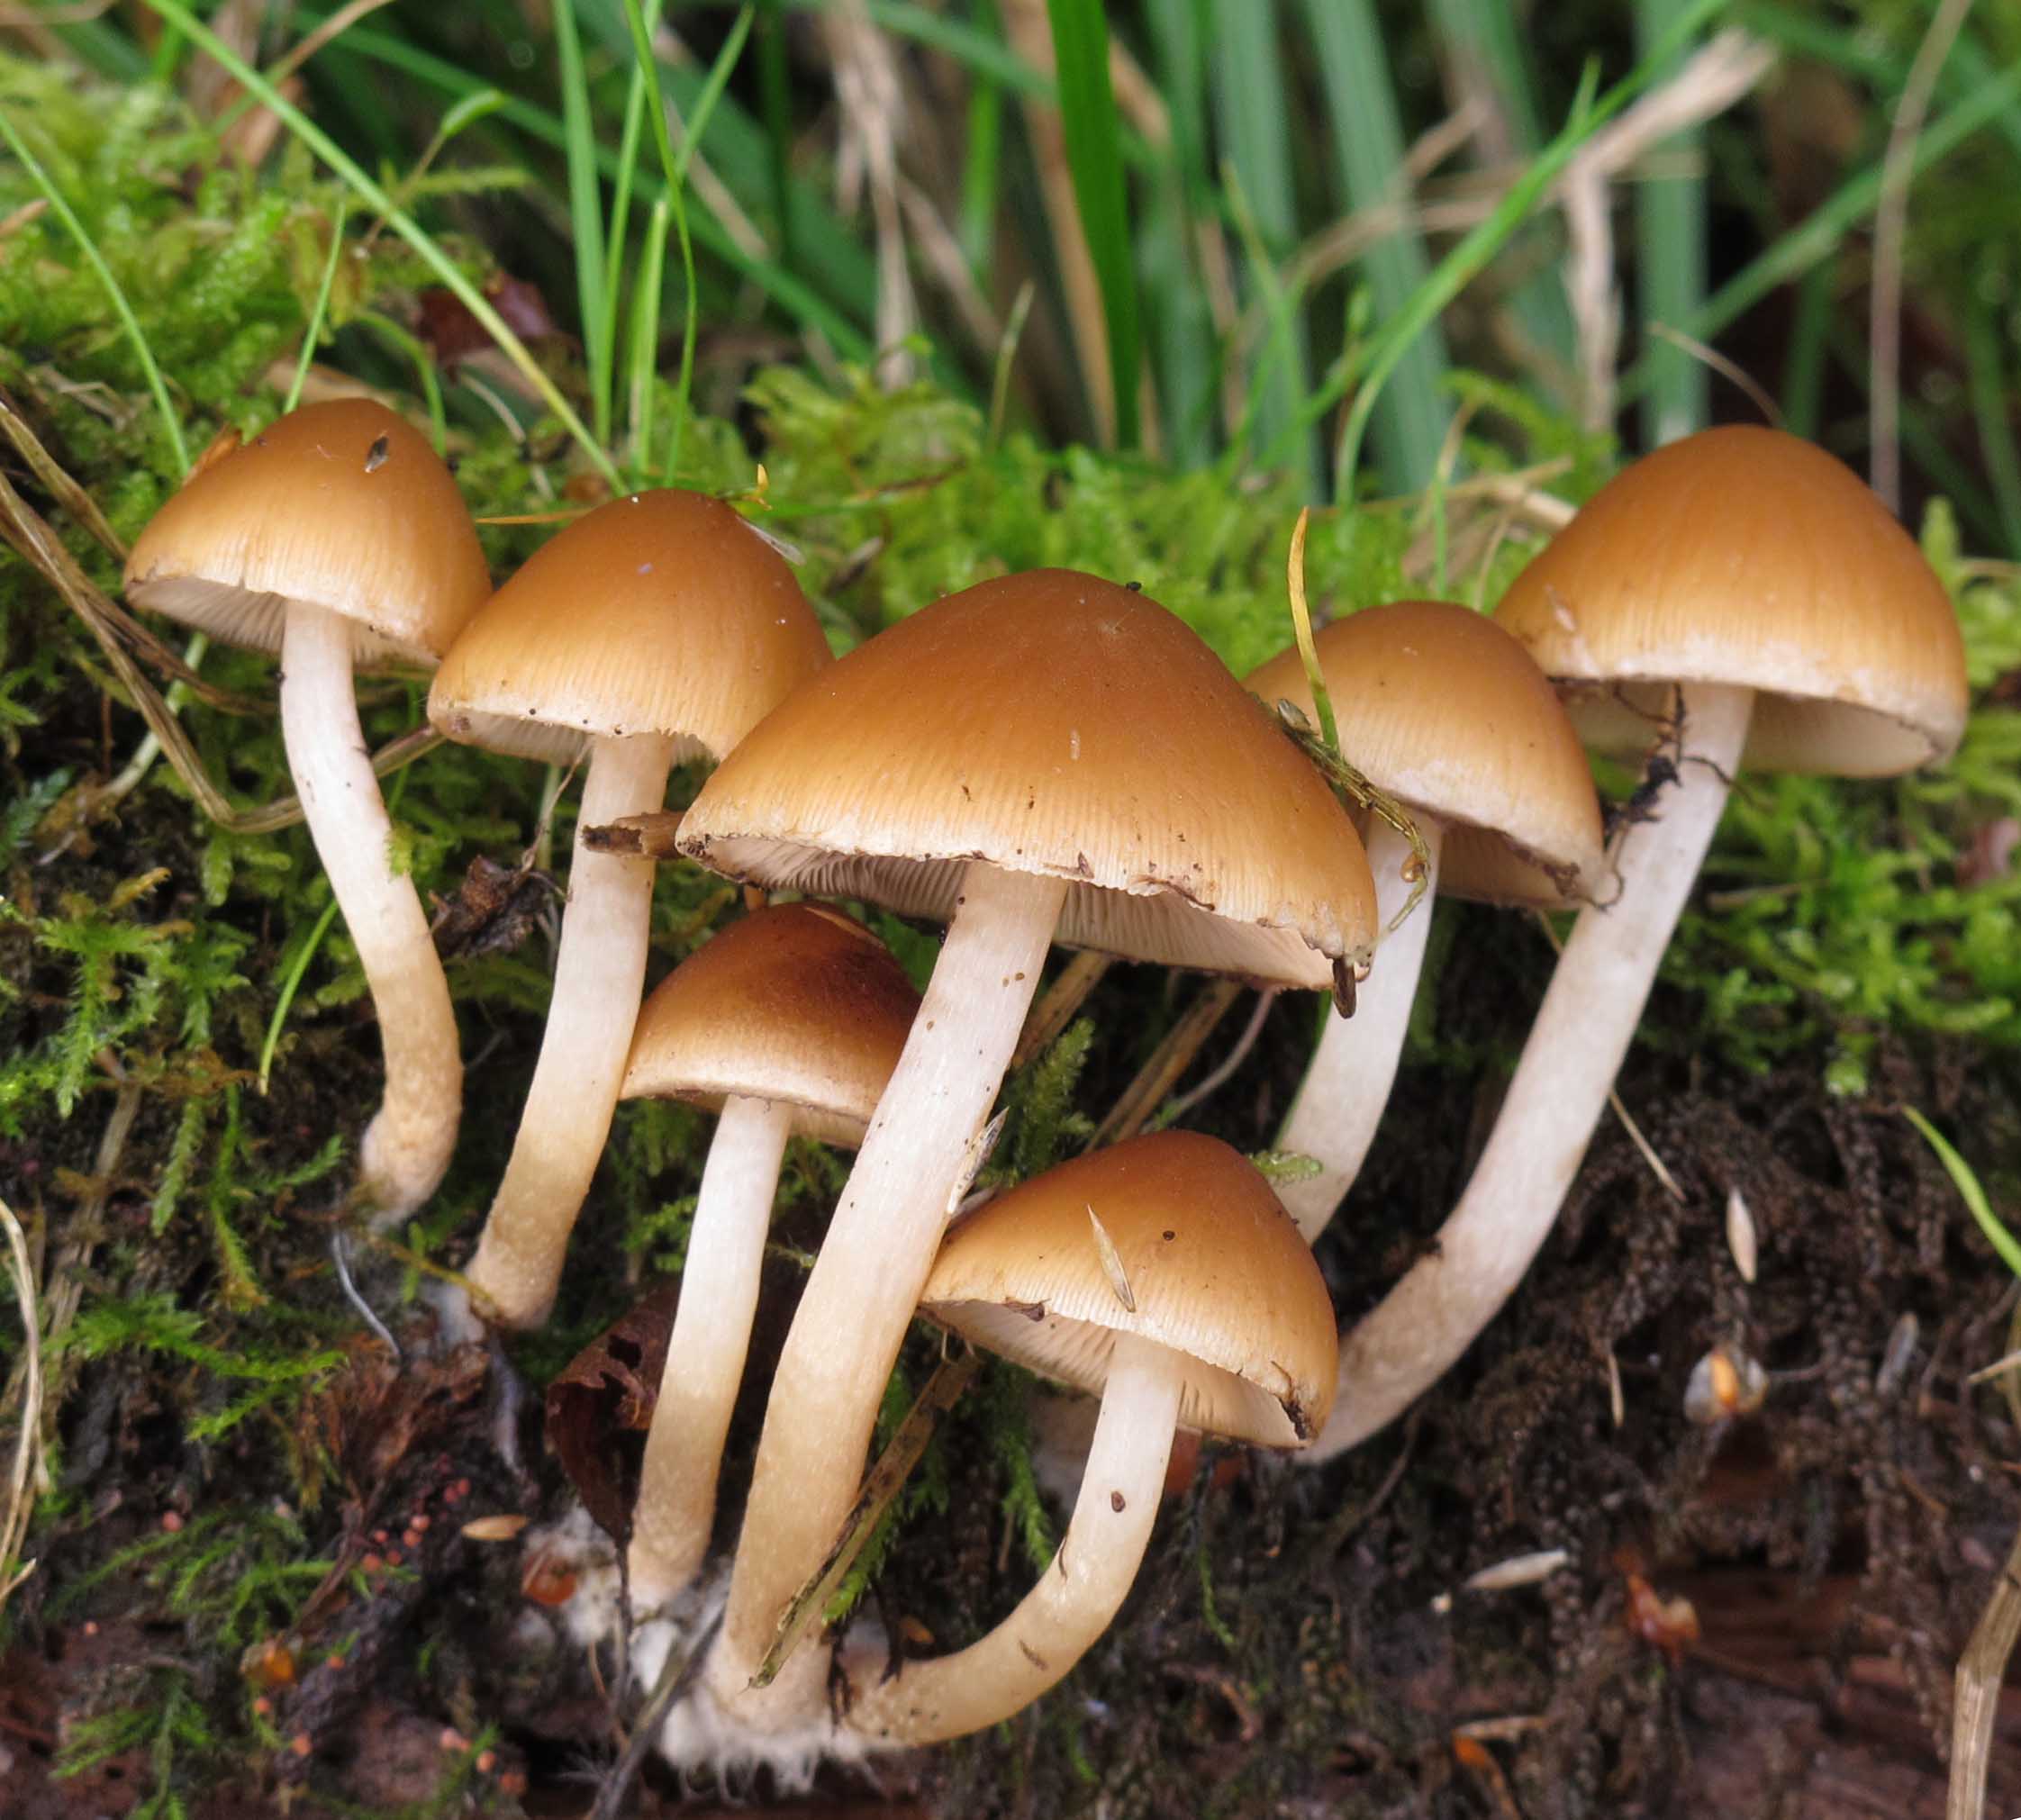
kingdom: Fungi
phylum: Basidiomycota
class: Agaricomycetes
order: Agaricales
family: Psathyrellaceae
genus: Psathyrella
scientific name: Psathyrella piluliformis
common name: lysstokket mørkhat
